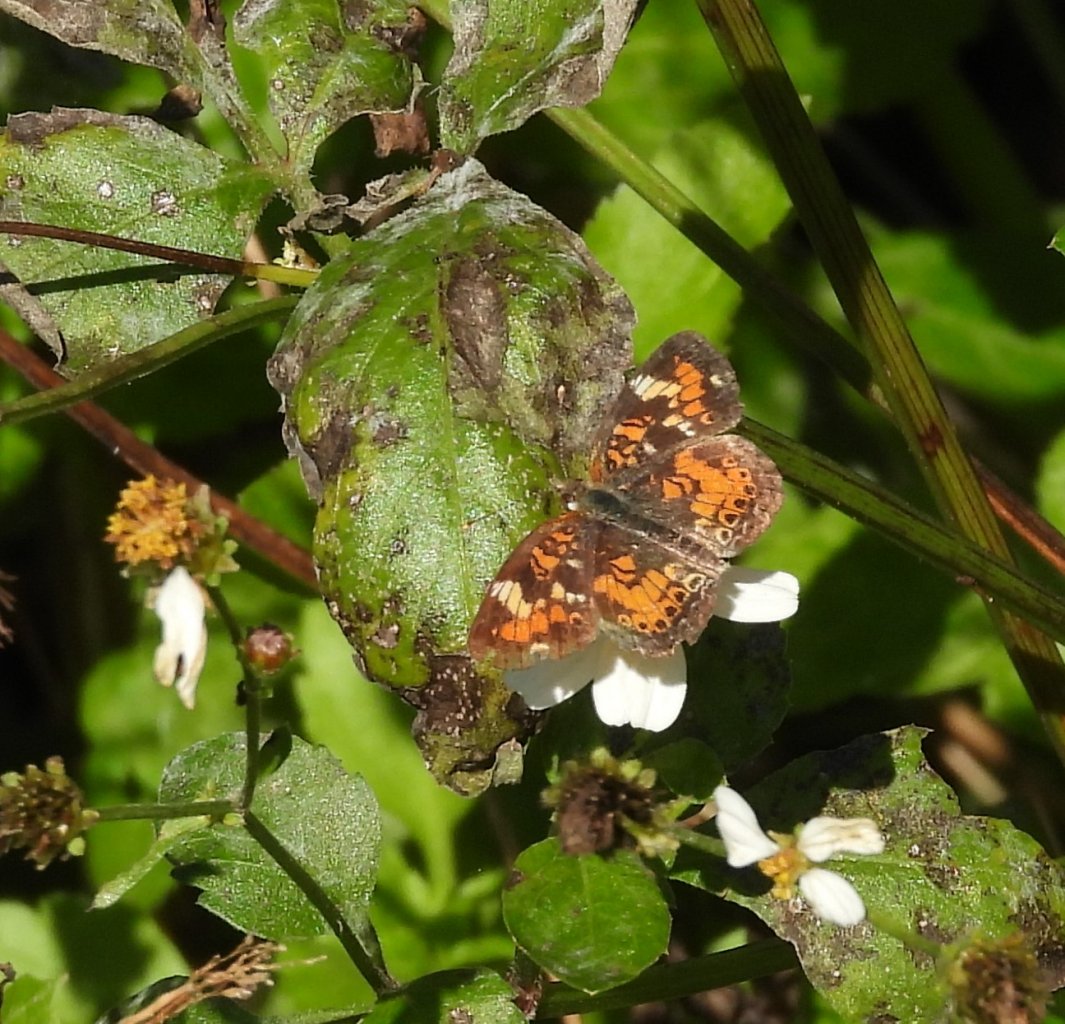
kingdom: Animalia
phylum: Arthropoda
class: Insecta
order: Lepidoptera
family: Nymphalidae
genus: Phyciodes
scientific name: Phyciodes phaon
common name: Phaon Crescent
